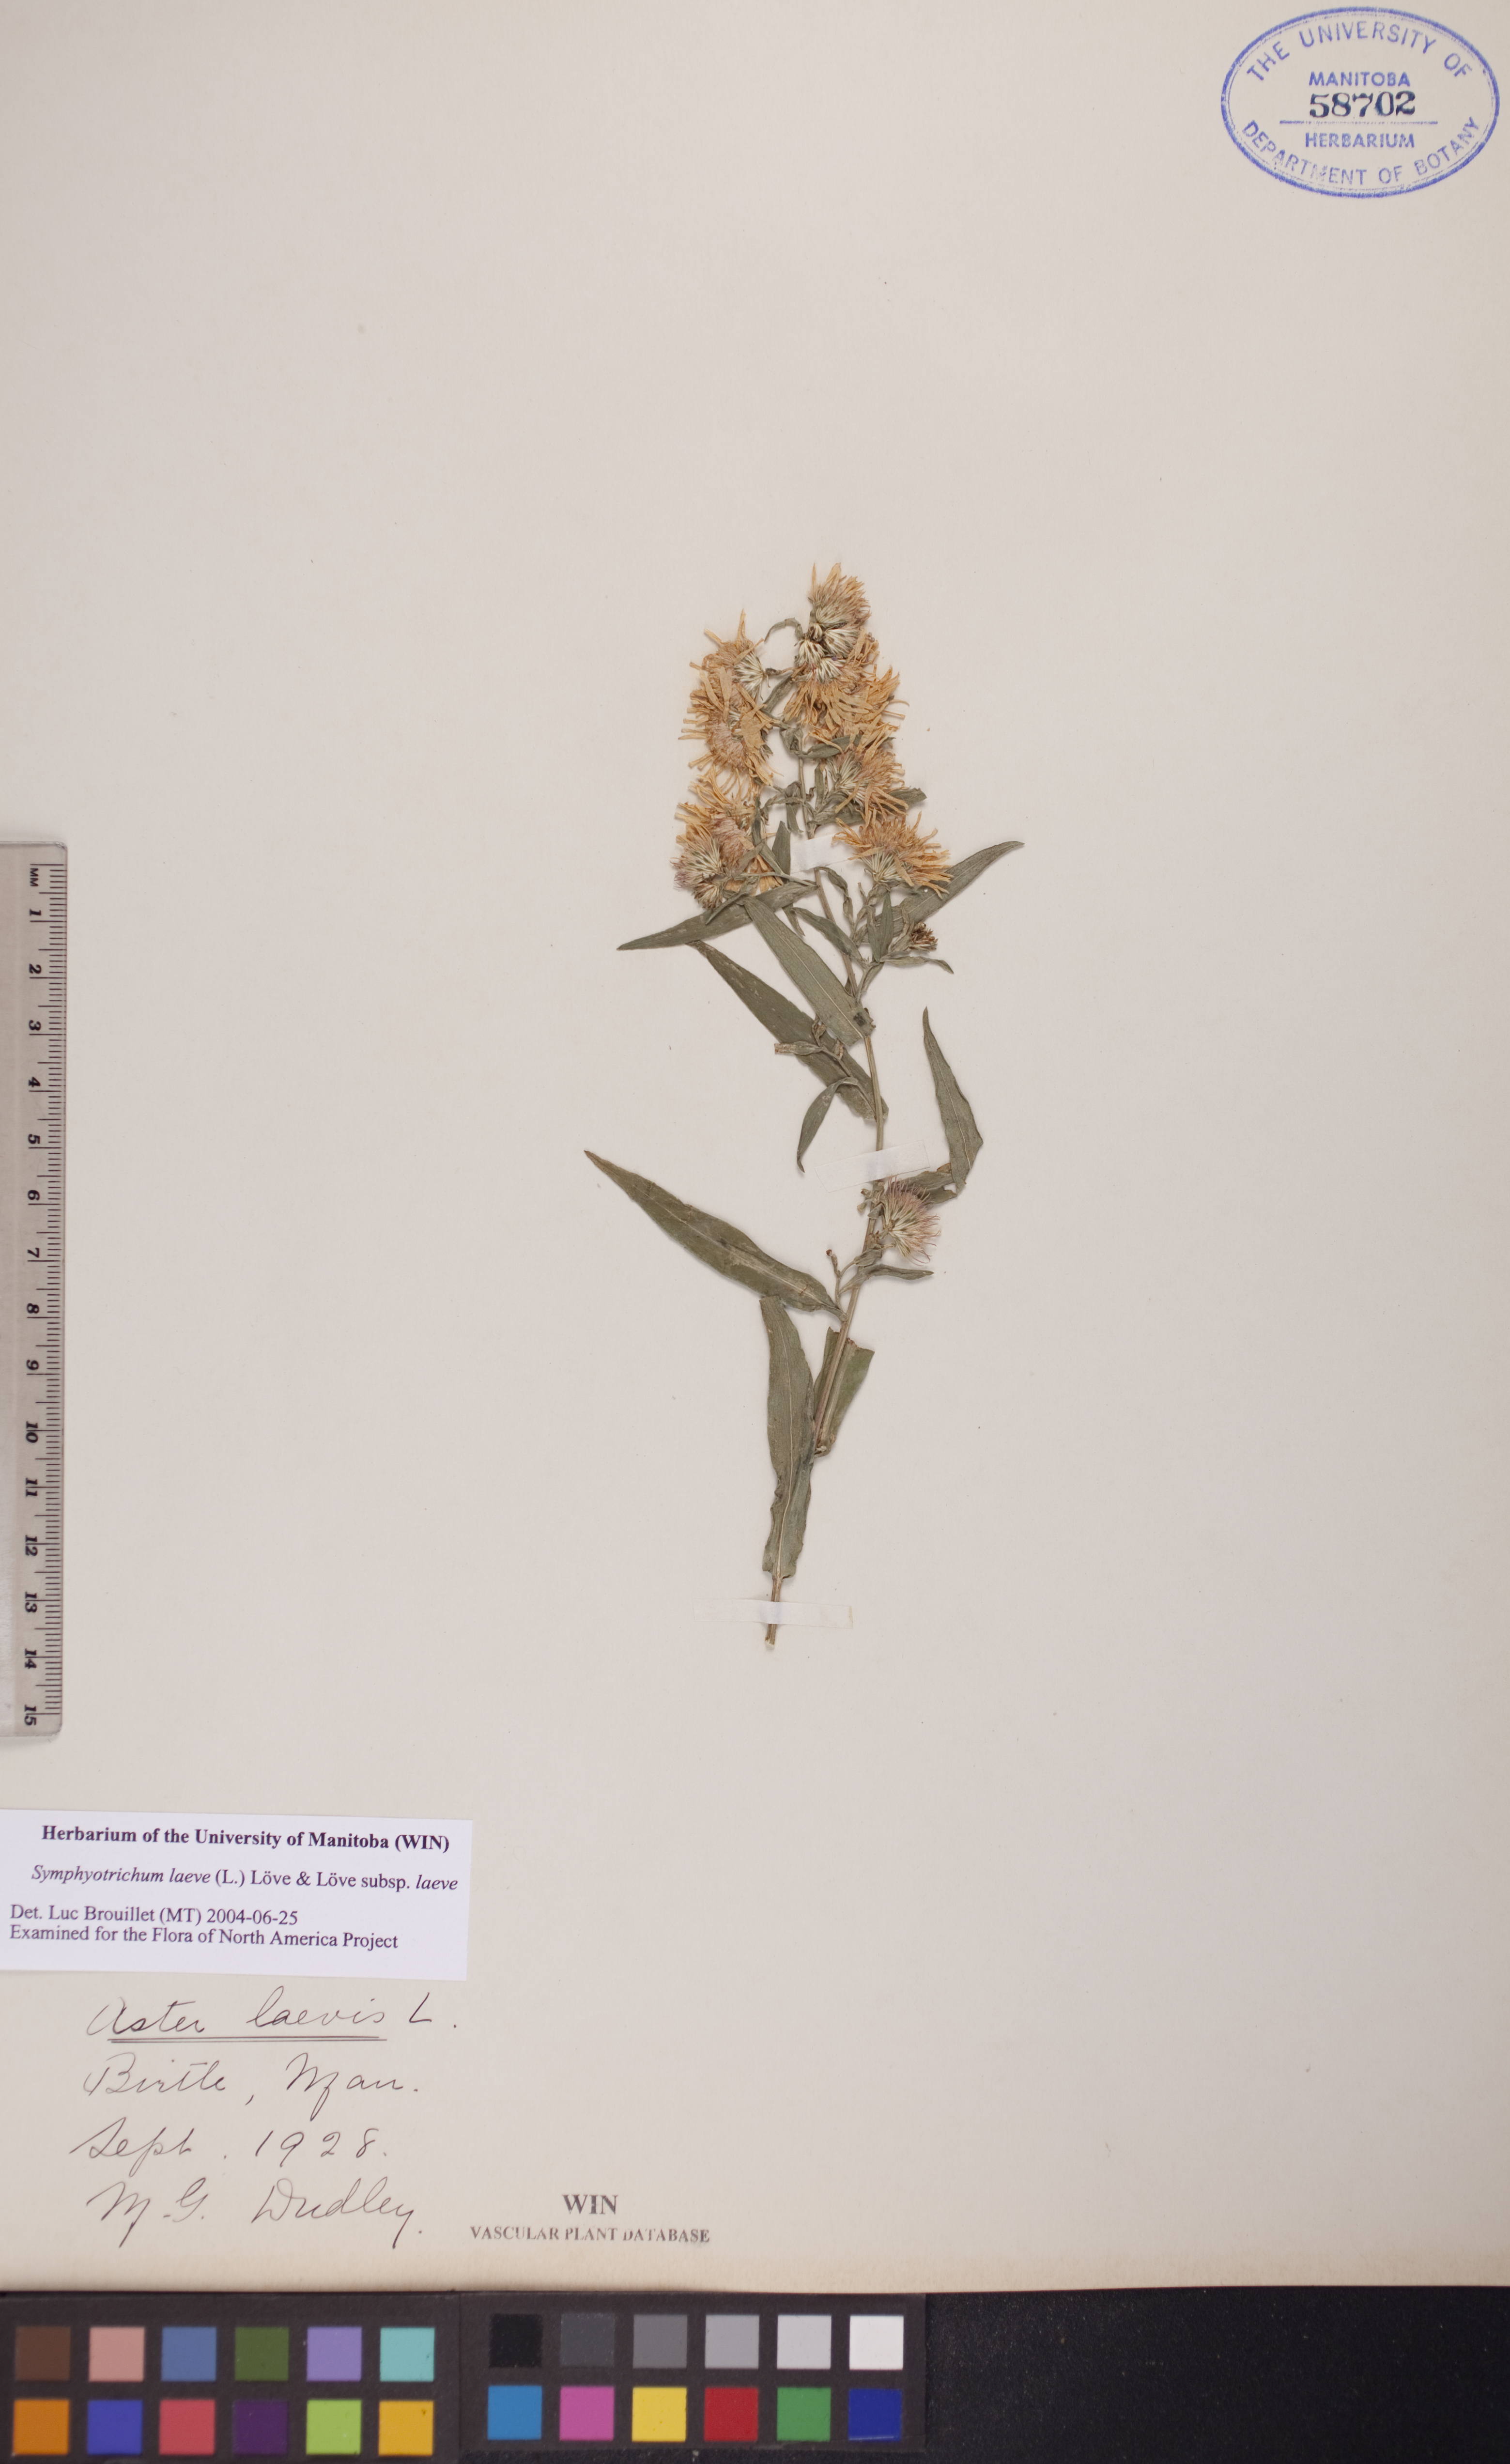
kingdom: Plantae
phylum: Tracheophyta
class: Magnoliopsida
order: Asterales
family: Asteraceae
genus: Symphyotrichum
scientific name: Symphyotrichum laeve
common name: Glaucous aster
